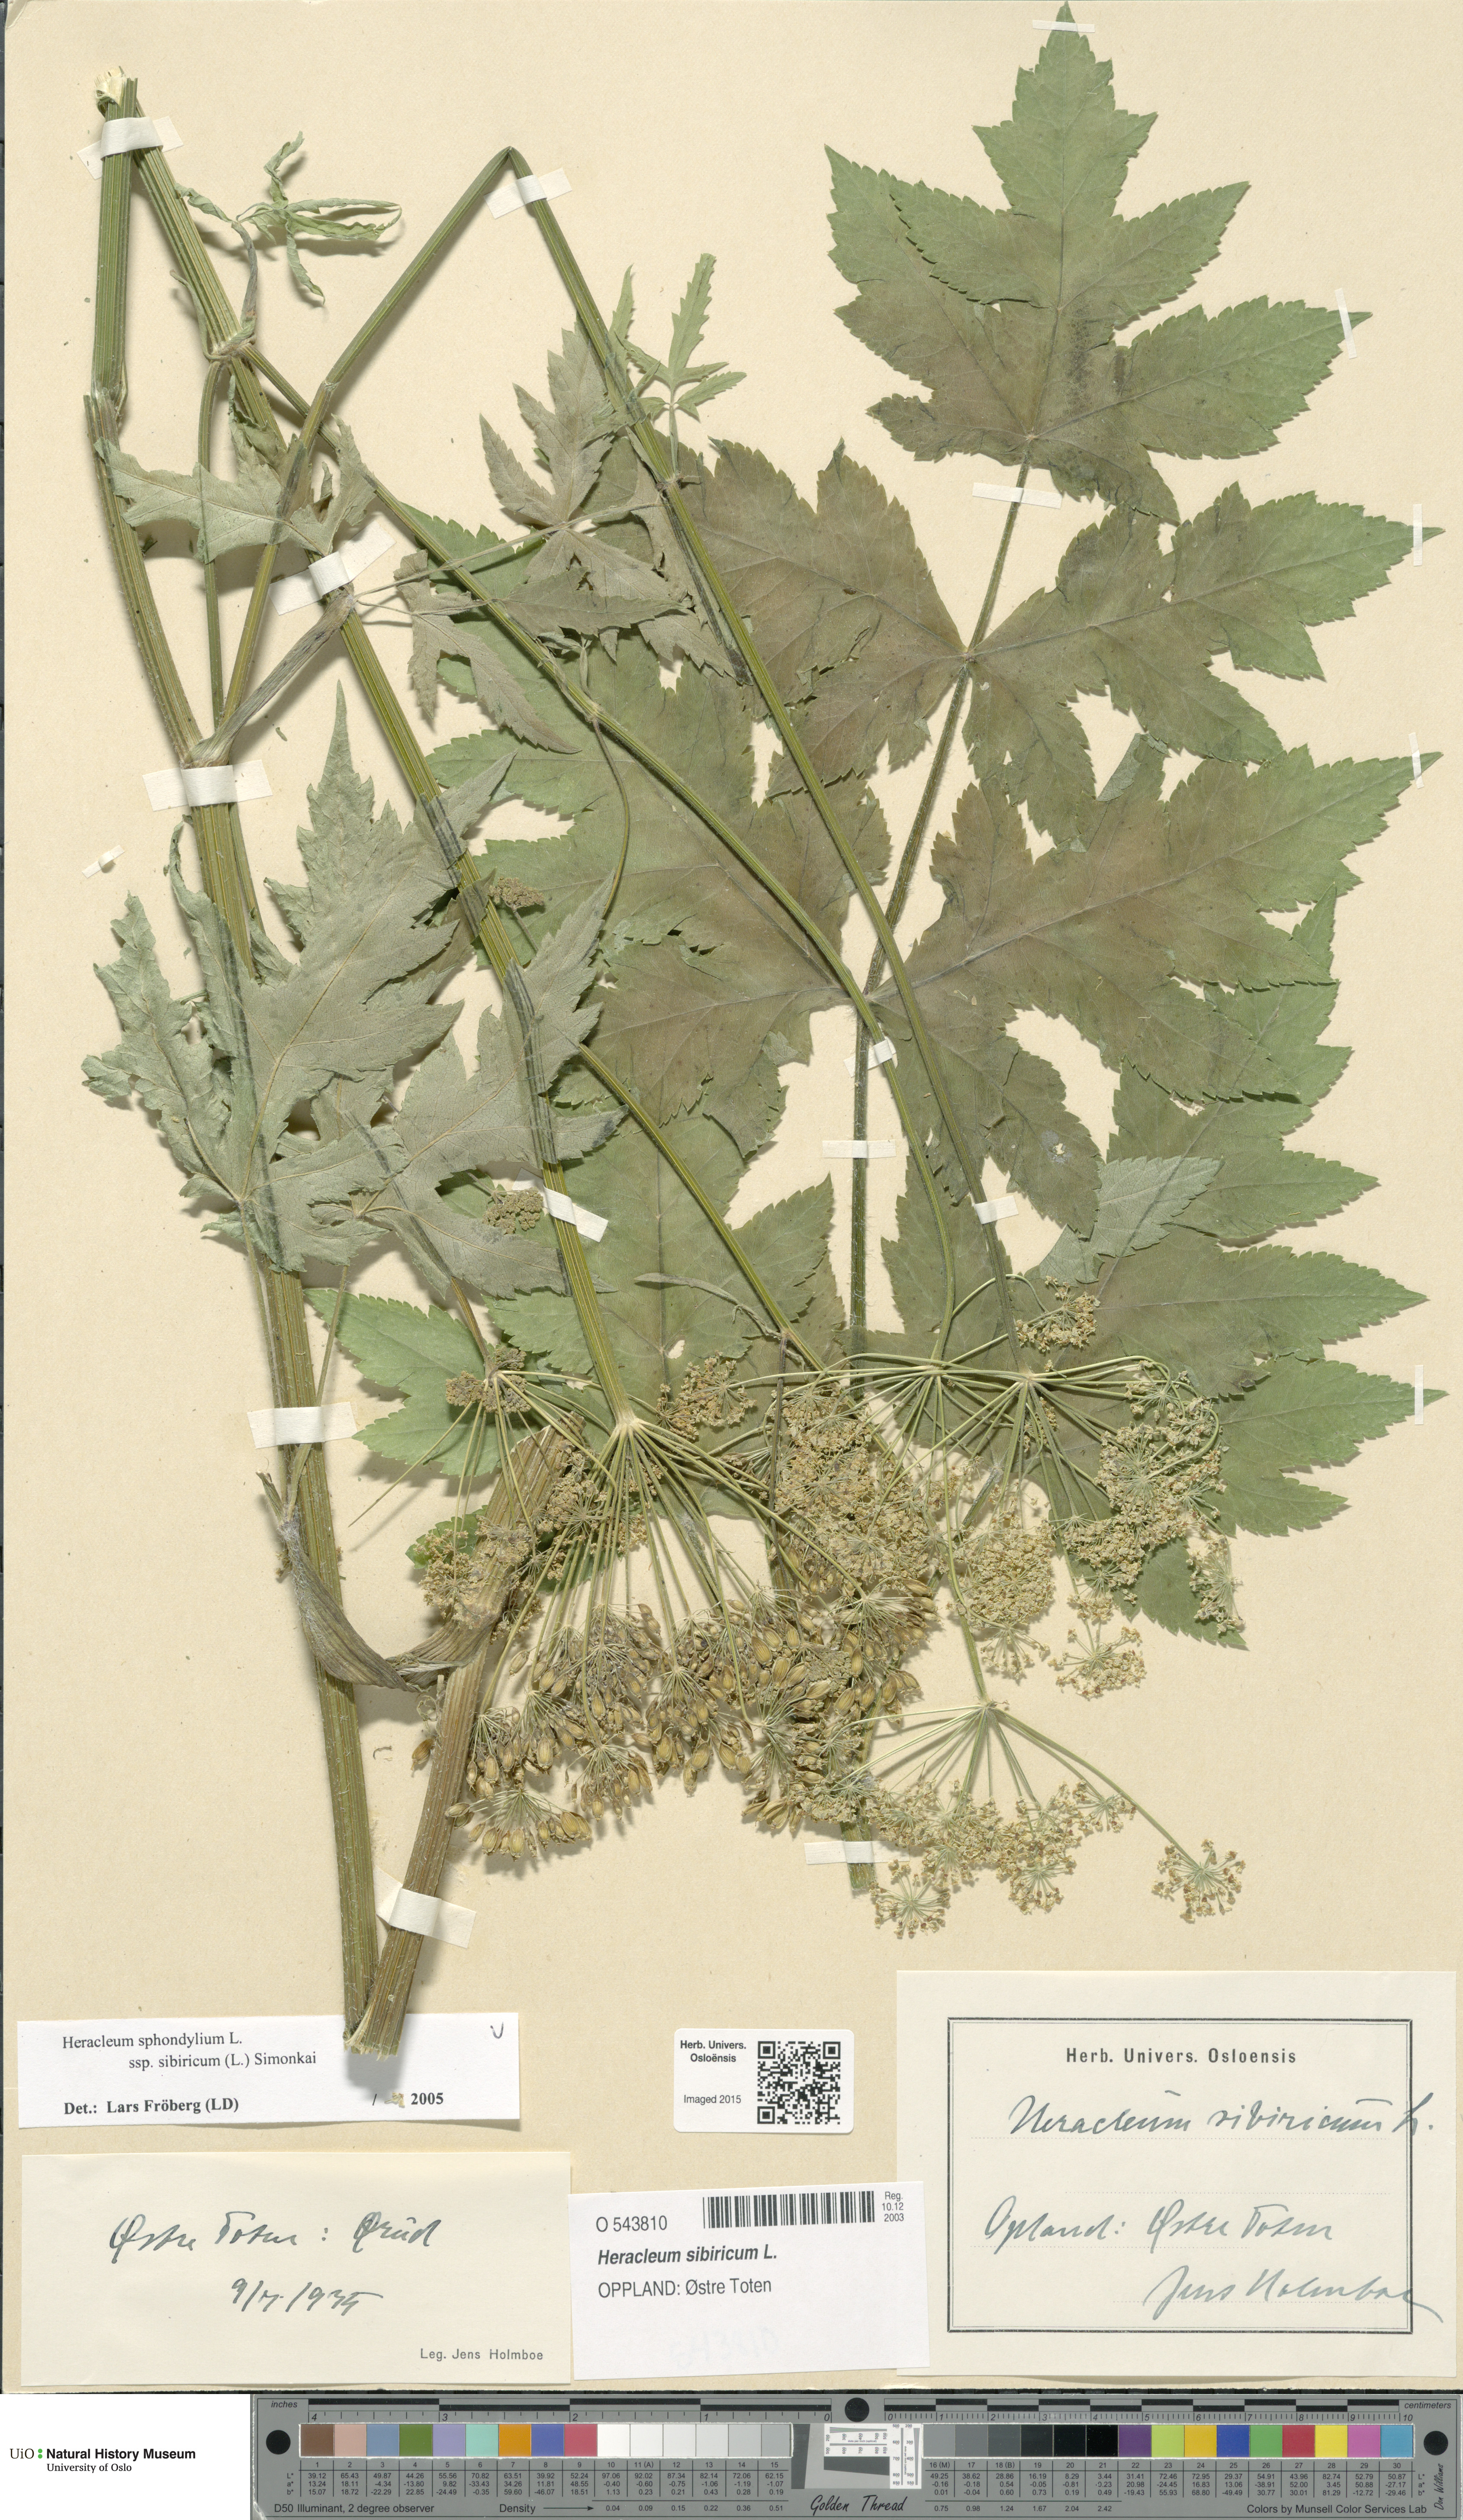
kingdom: Plantae
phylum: Tracheophyta
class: Magnoliopsida
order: Apiales
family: Apiaceae
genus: Heracleum
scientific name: Heracleum sphondylium
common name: Hogweed
